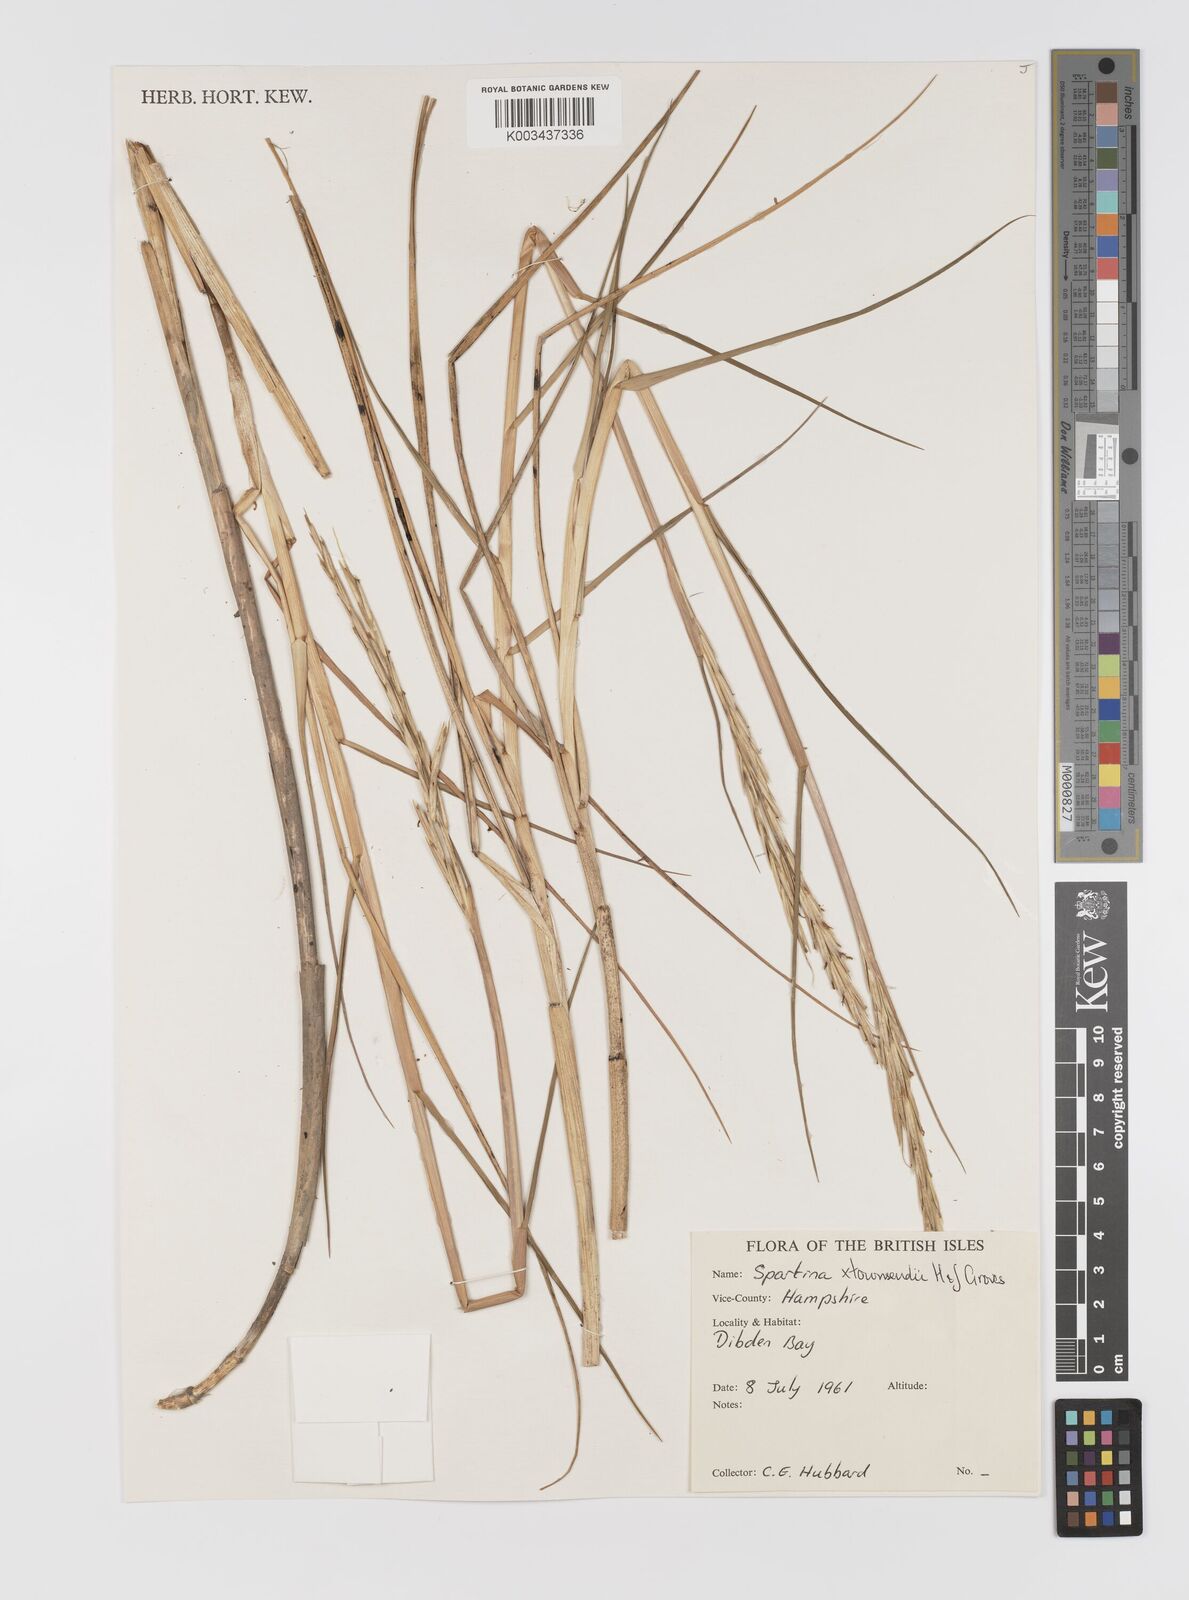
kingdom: Plantae
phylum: Tracheophyta
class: Liliopsida
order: Poales
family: Poaceae
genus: Sporobolus
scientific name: Sporobolus townsendii
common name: Townsend's cordgrass
